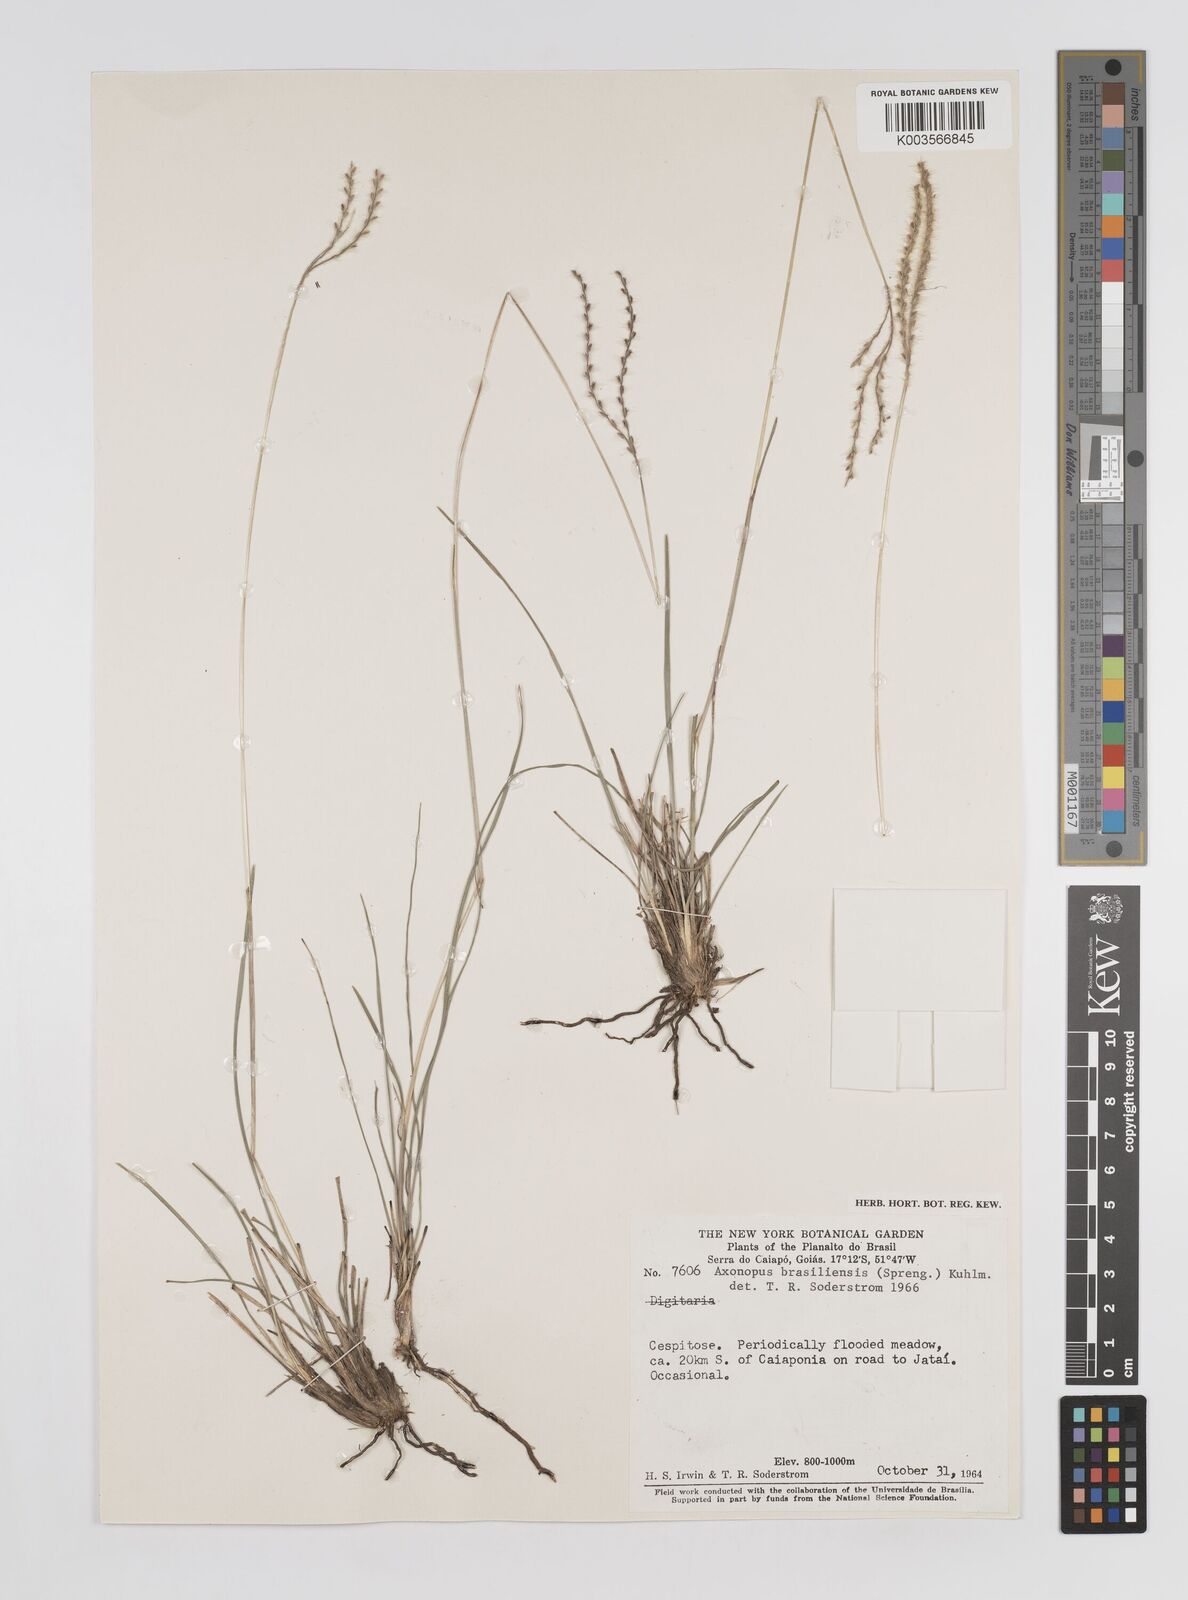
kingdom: Plantae
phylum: Tracheophyta
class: Liliopsida
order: Poales
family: Poaceae
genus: Axonopus
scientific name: Axonopus brasiliensis
